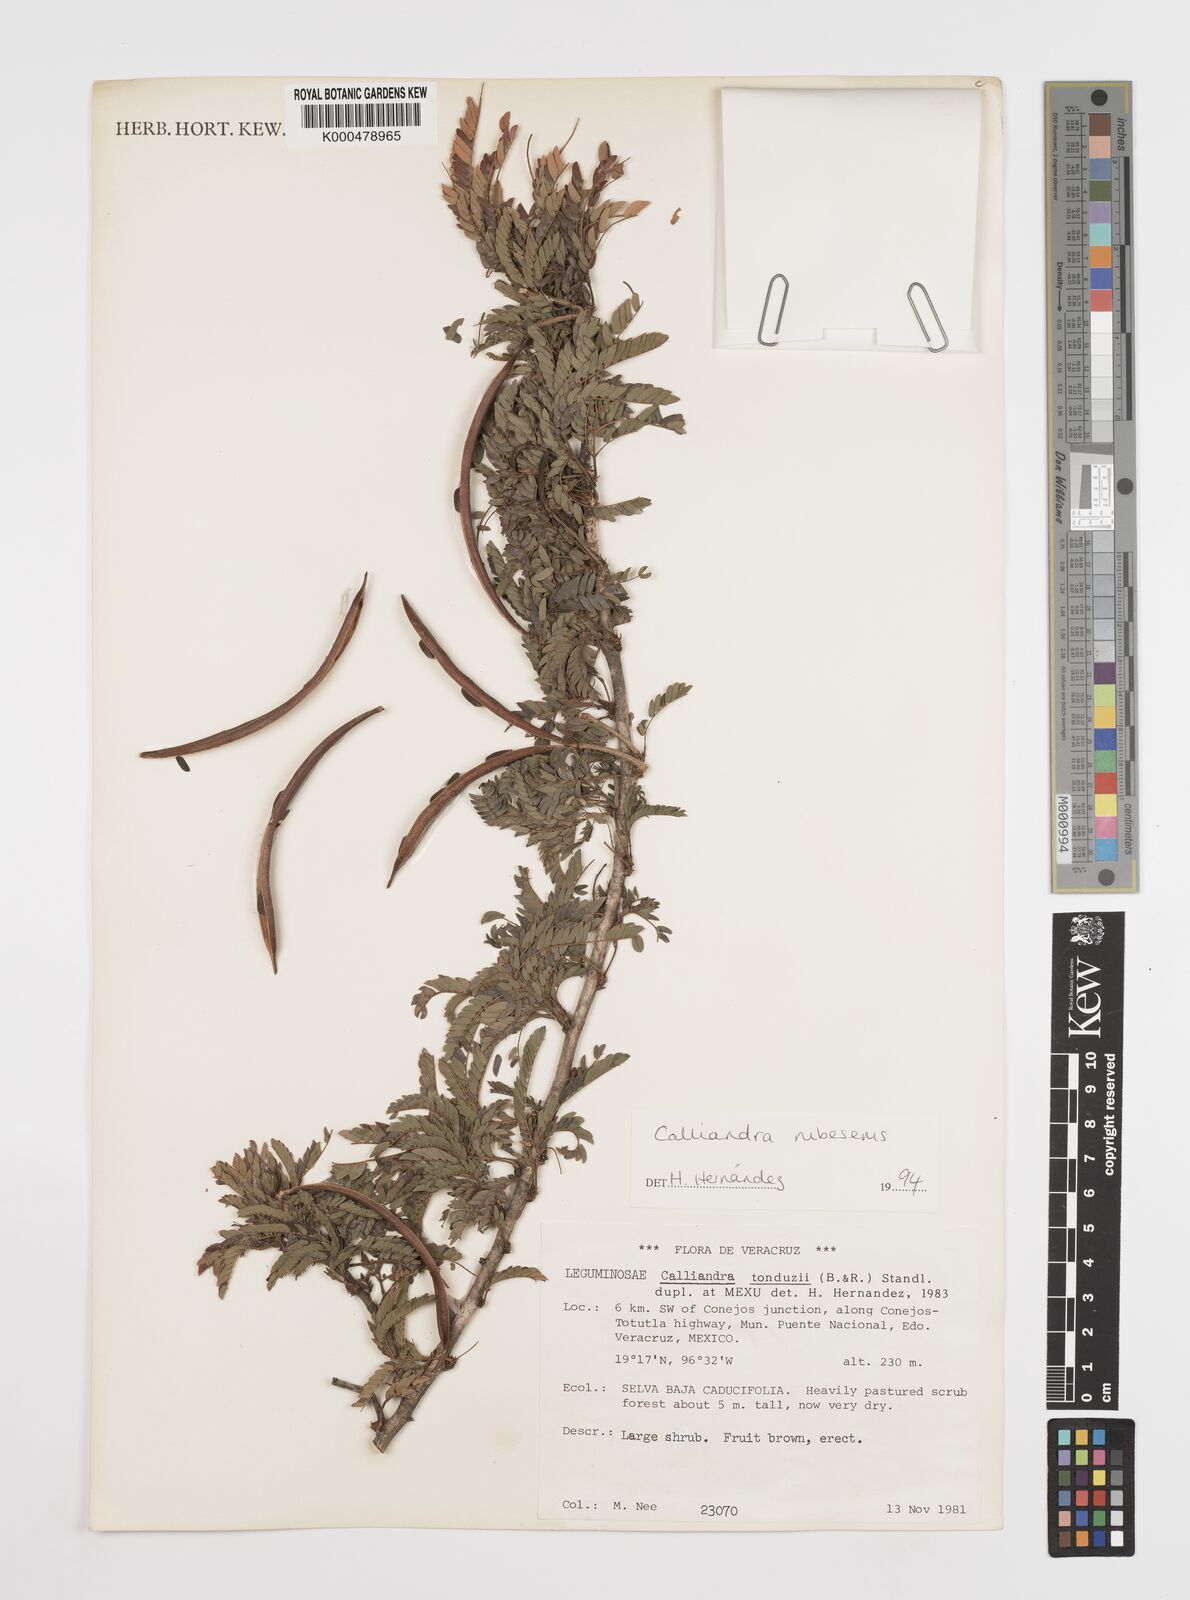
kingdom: Plantae
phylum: Tracheophyta
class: Magnoliopsida
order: Fabales
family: Fabaceae
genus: Calliandra
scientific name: Calliandra rubescens
